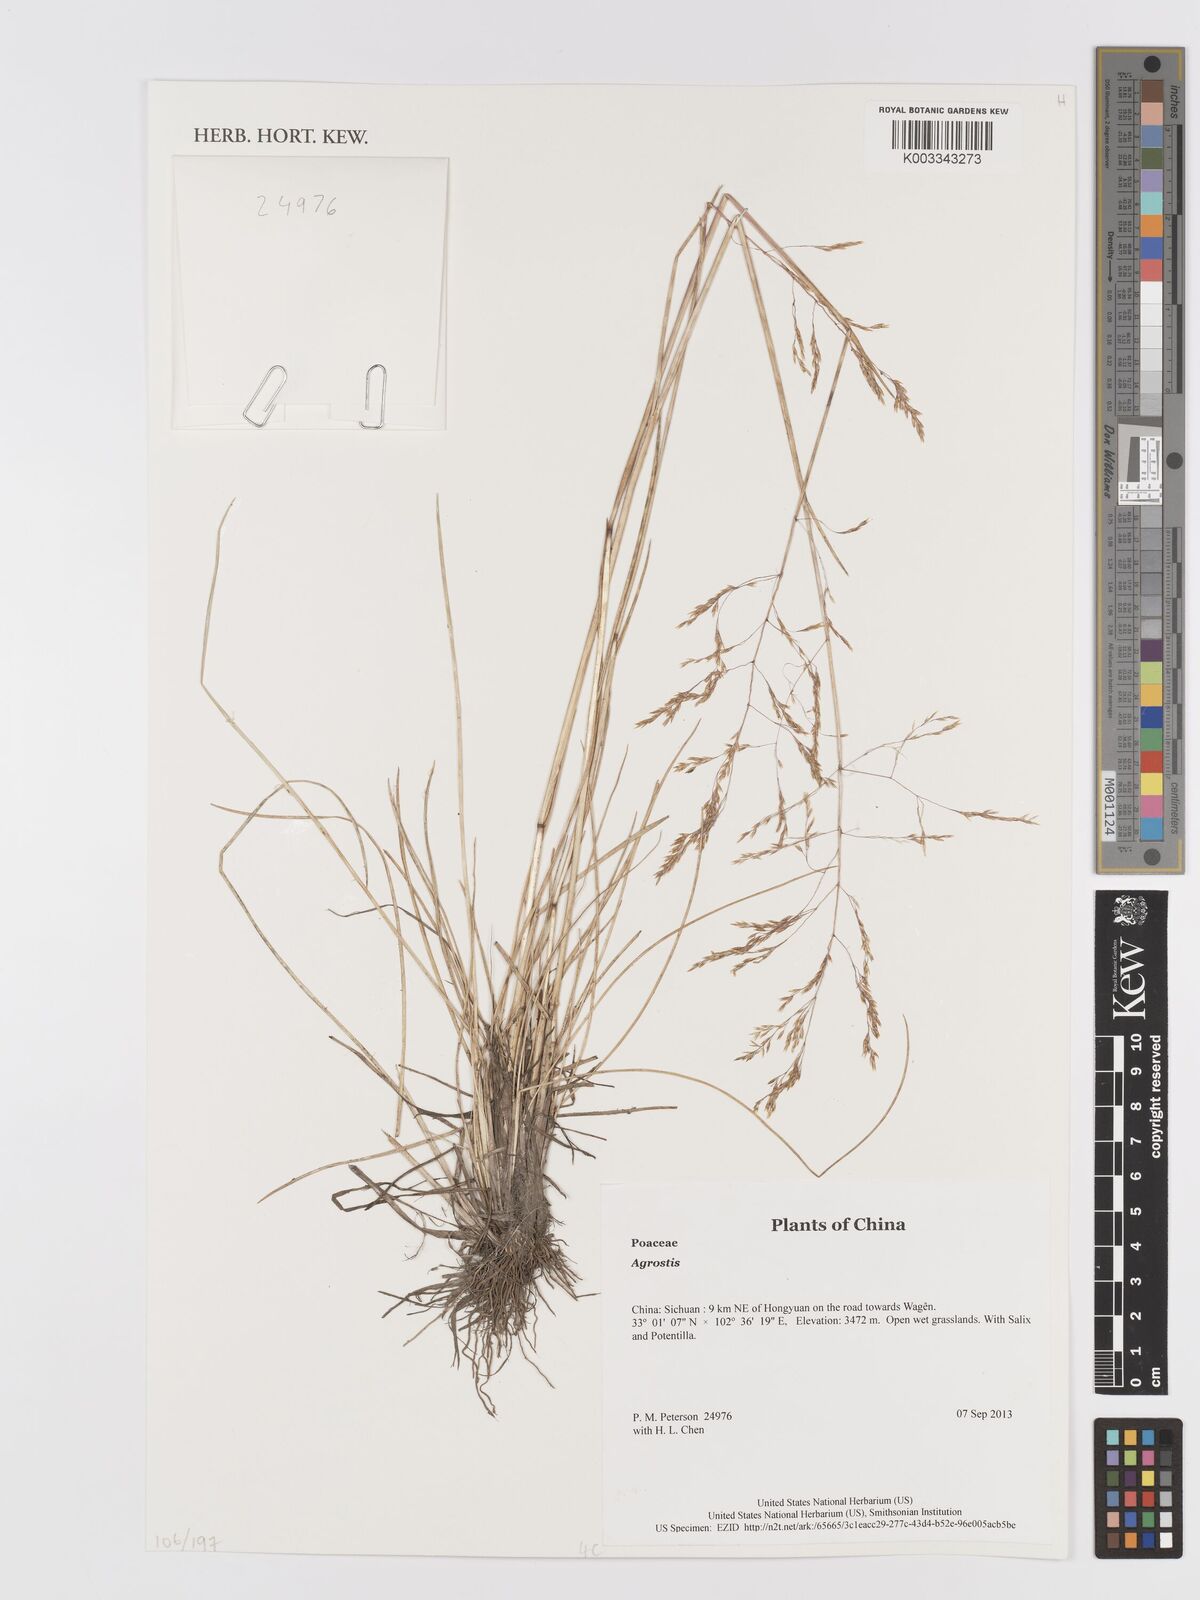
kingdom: Plantae
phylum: Tracheophyta
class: Liliopsida
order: Poales
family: Poaceae
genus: Agrostis
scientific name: Agrostis
